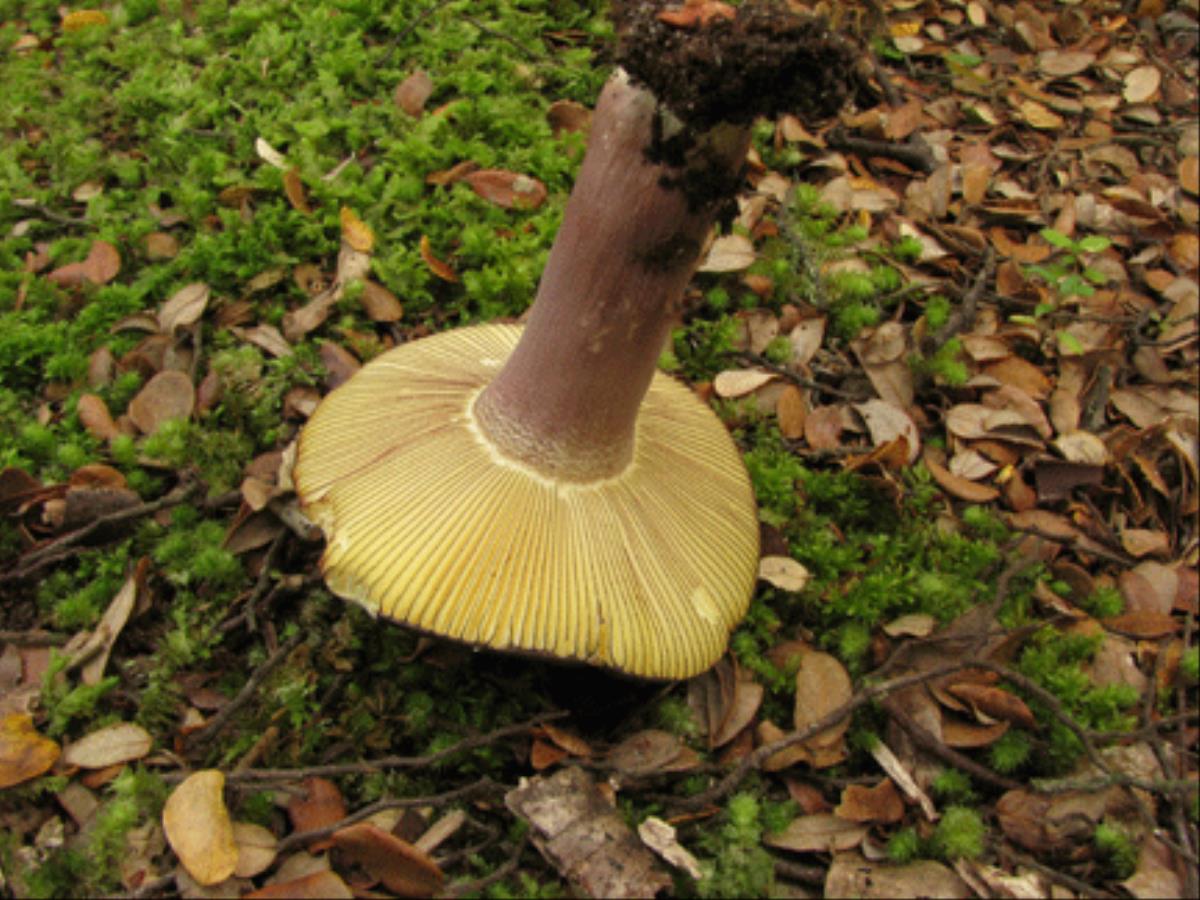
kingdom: Fungi
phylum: Basidiomycota
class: Agaricomycetes
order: Russulales
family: Russulaceae
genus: Russula
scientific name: Russula tawai
